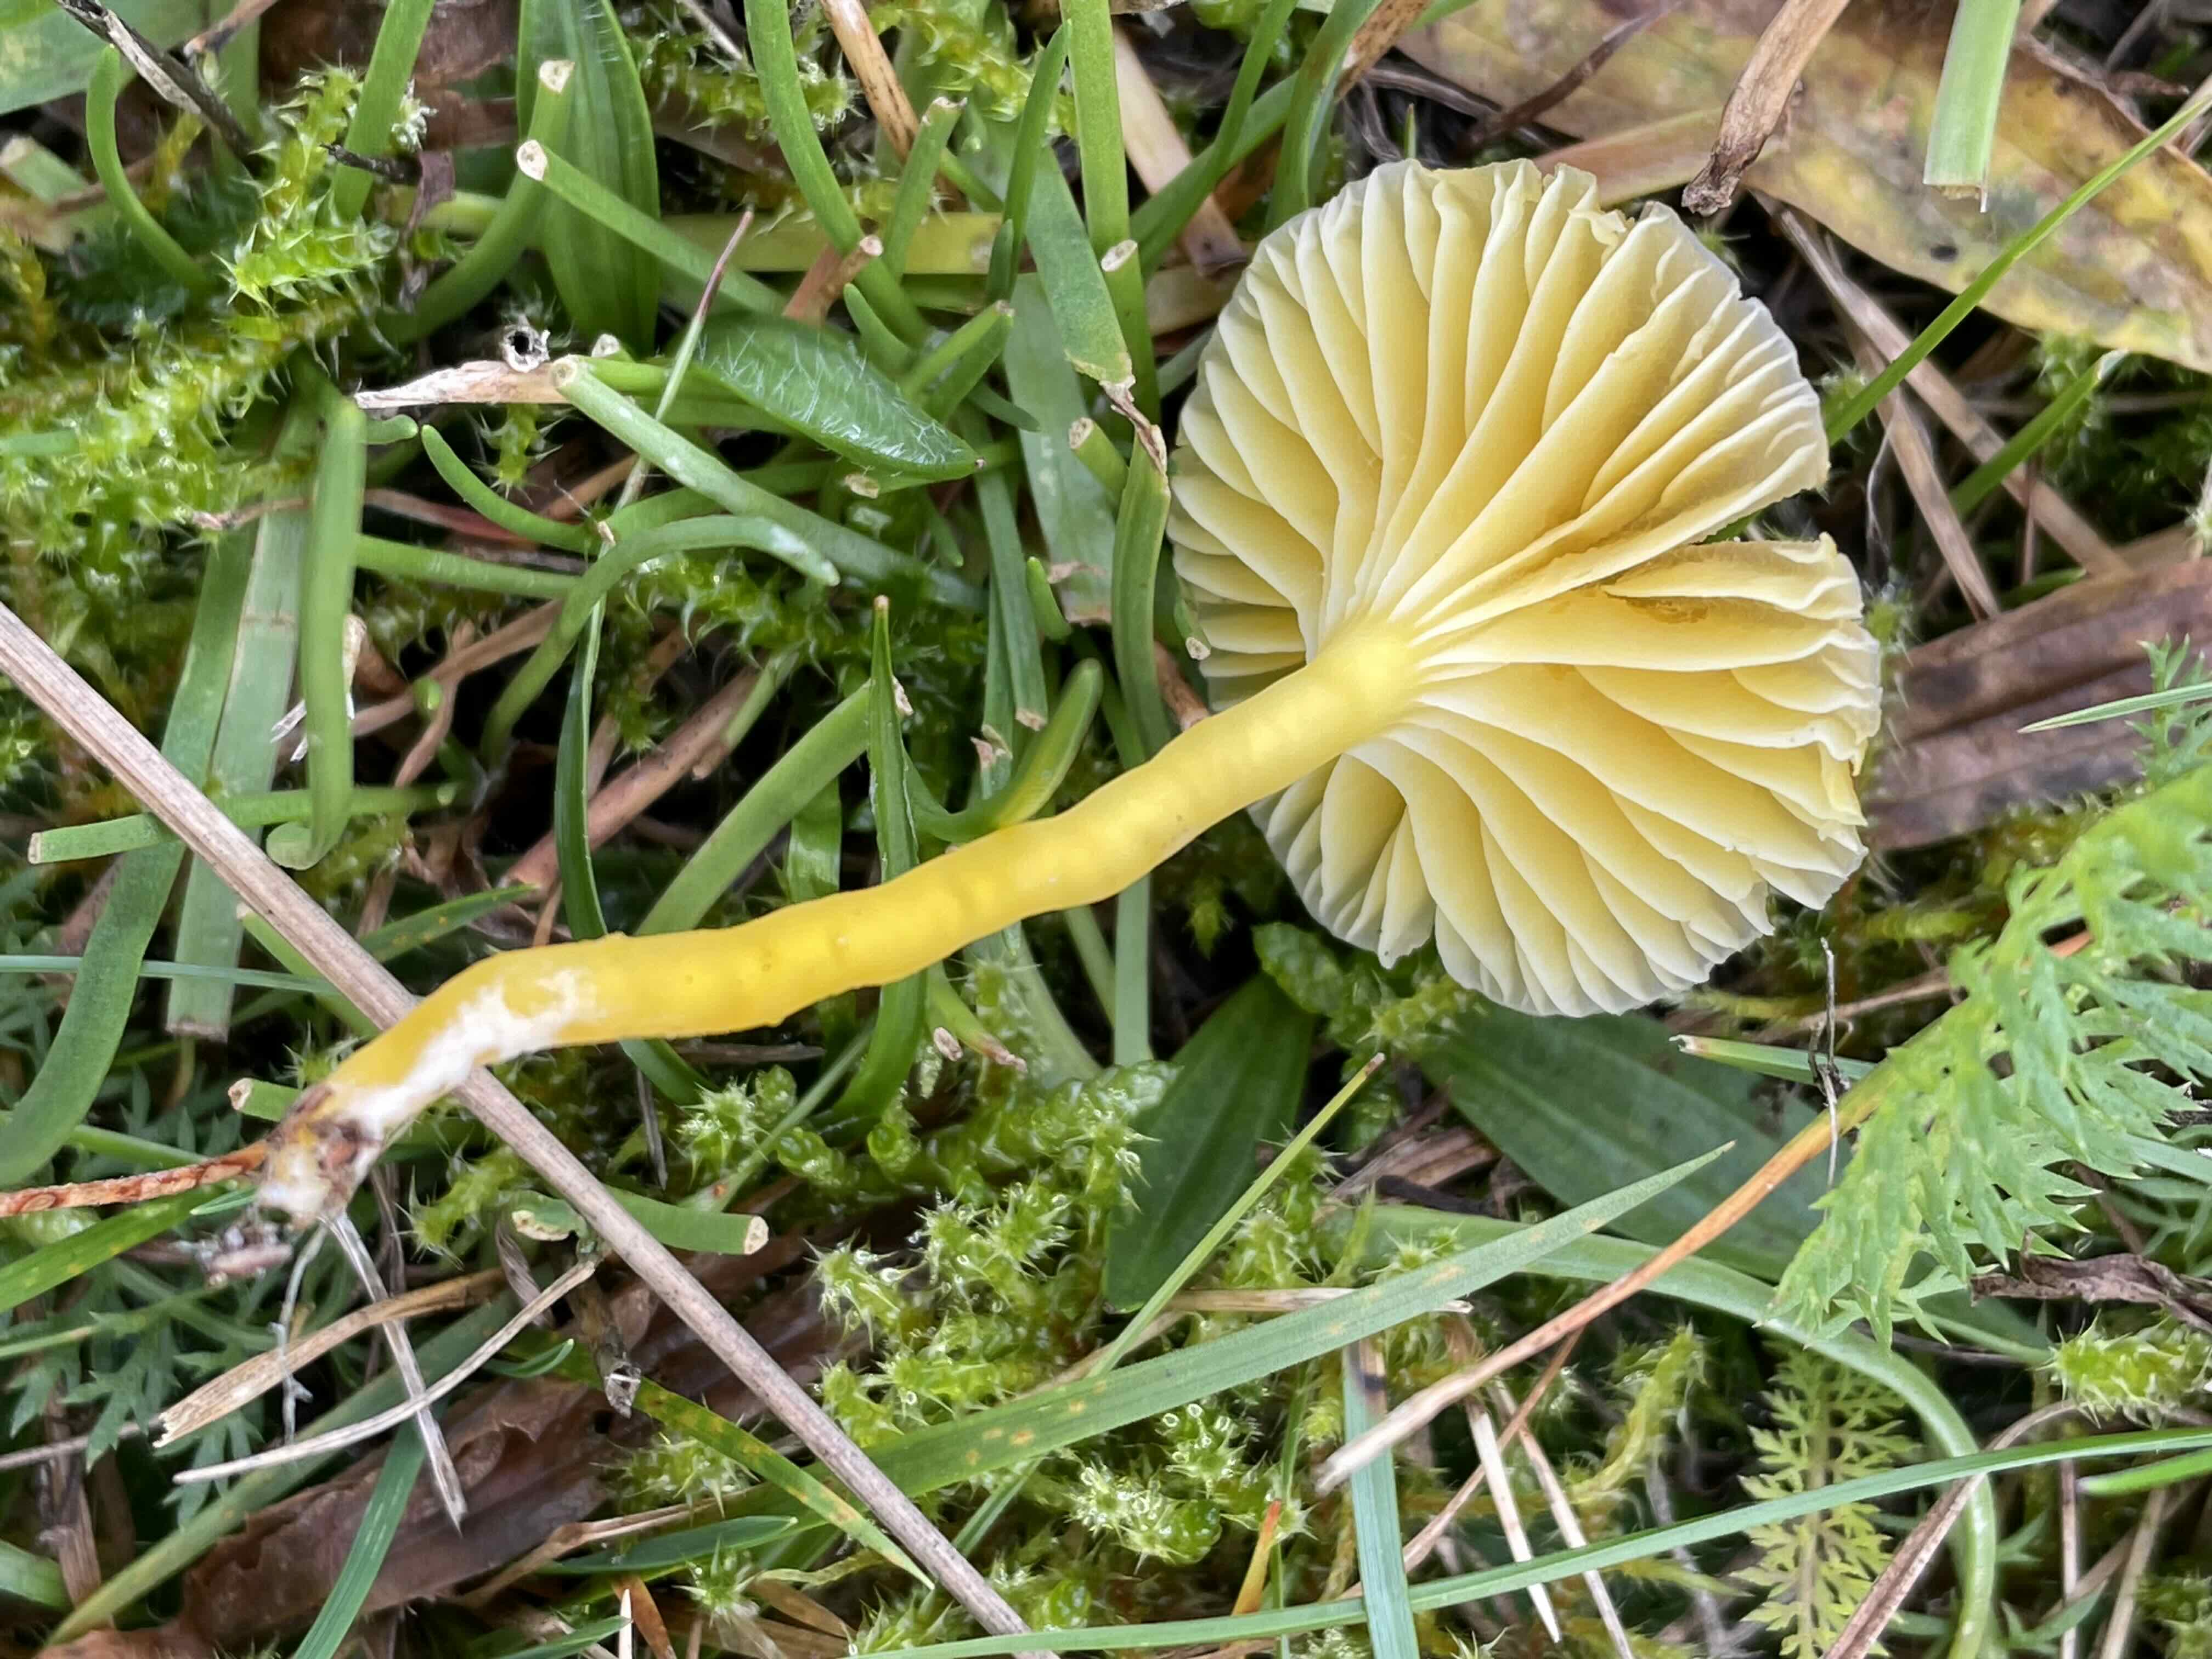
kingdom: Fungi
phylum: Basidiomycota
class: Agaricomycetes
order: Agaricales
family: Hygrophoraceae
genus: Hygrocybe
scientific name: Hygrocybe ceracea
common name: voksgul vokshat
